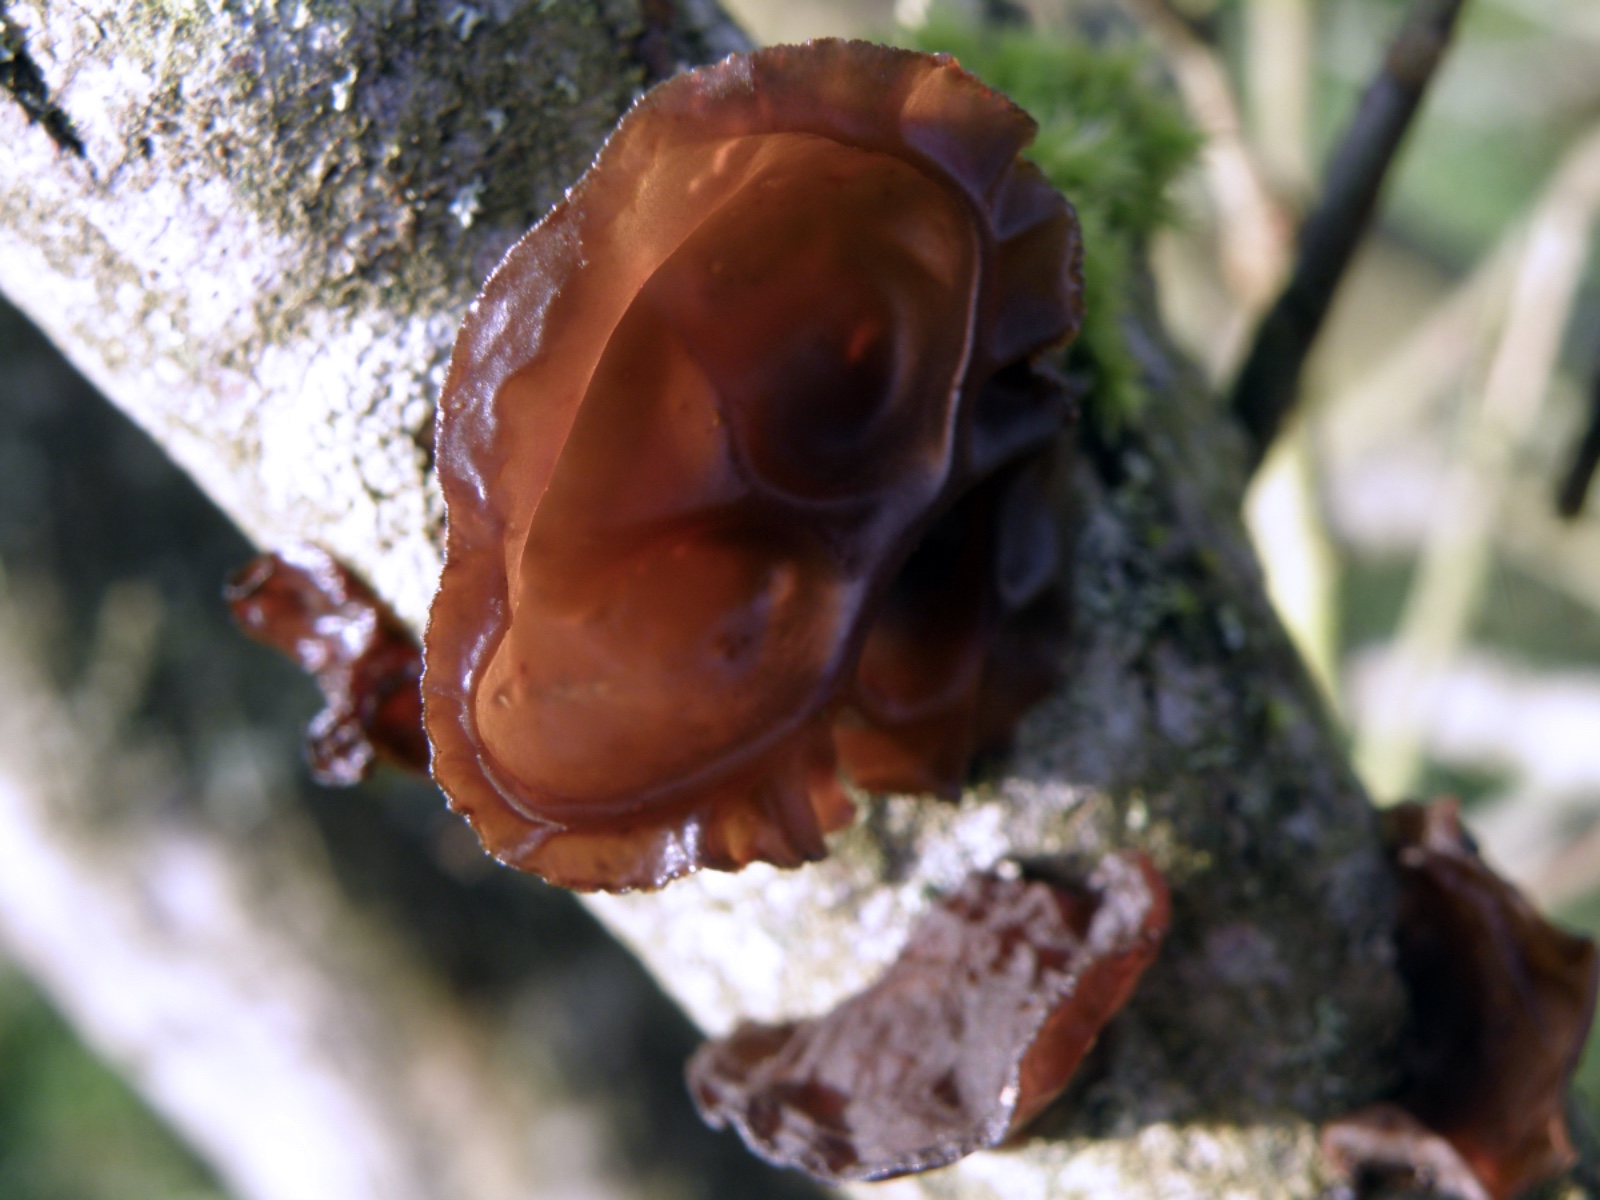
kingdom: Fungi
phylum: Basidiomycota
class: Agaricomycetes
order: Auriculariales
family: Auriculariaceae
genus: Exidia
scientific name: Exidia recisa
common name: pile-bævretop
